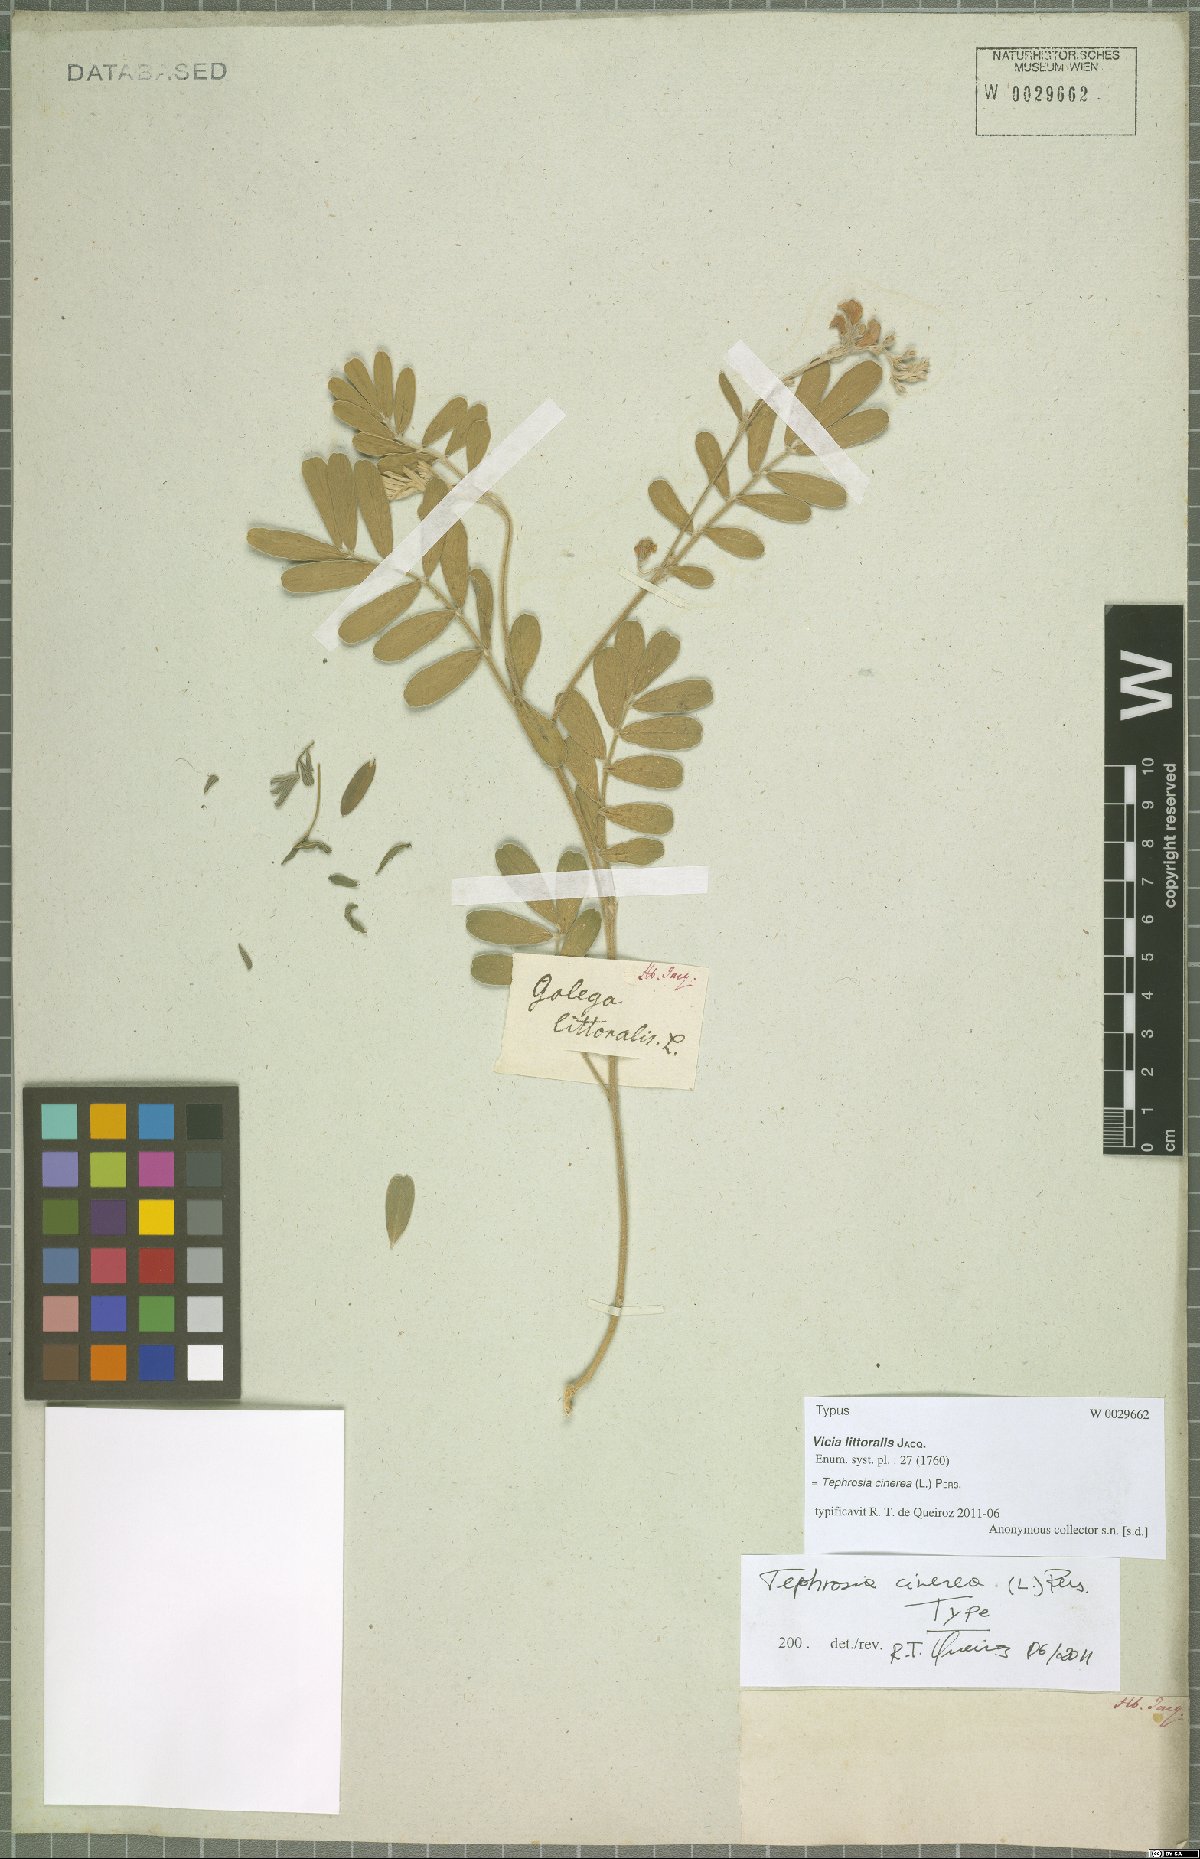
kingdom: Plantae
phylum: Tracheophyta
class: Magnoliopsida
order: Fabales
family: Fabaceae
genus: Tephrosia
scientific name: Tephrosia cinerea
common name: Ashen hoarypea
